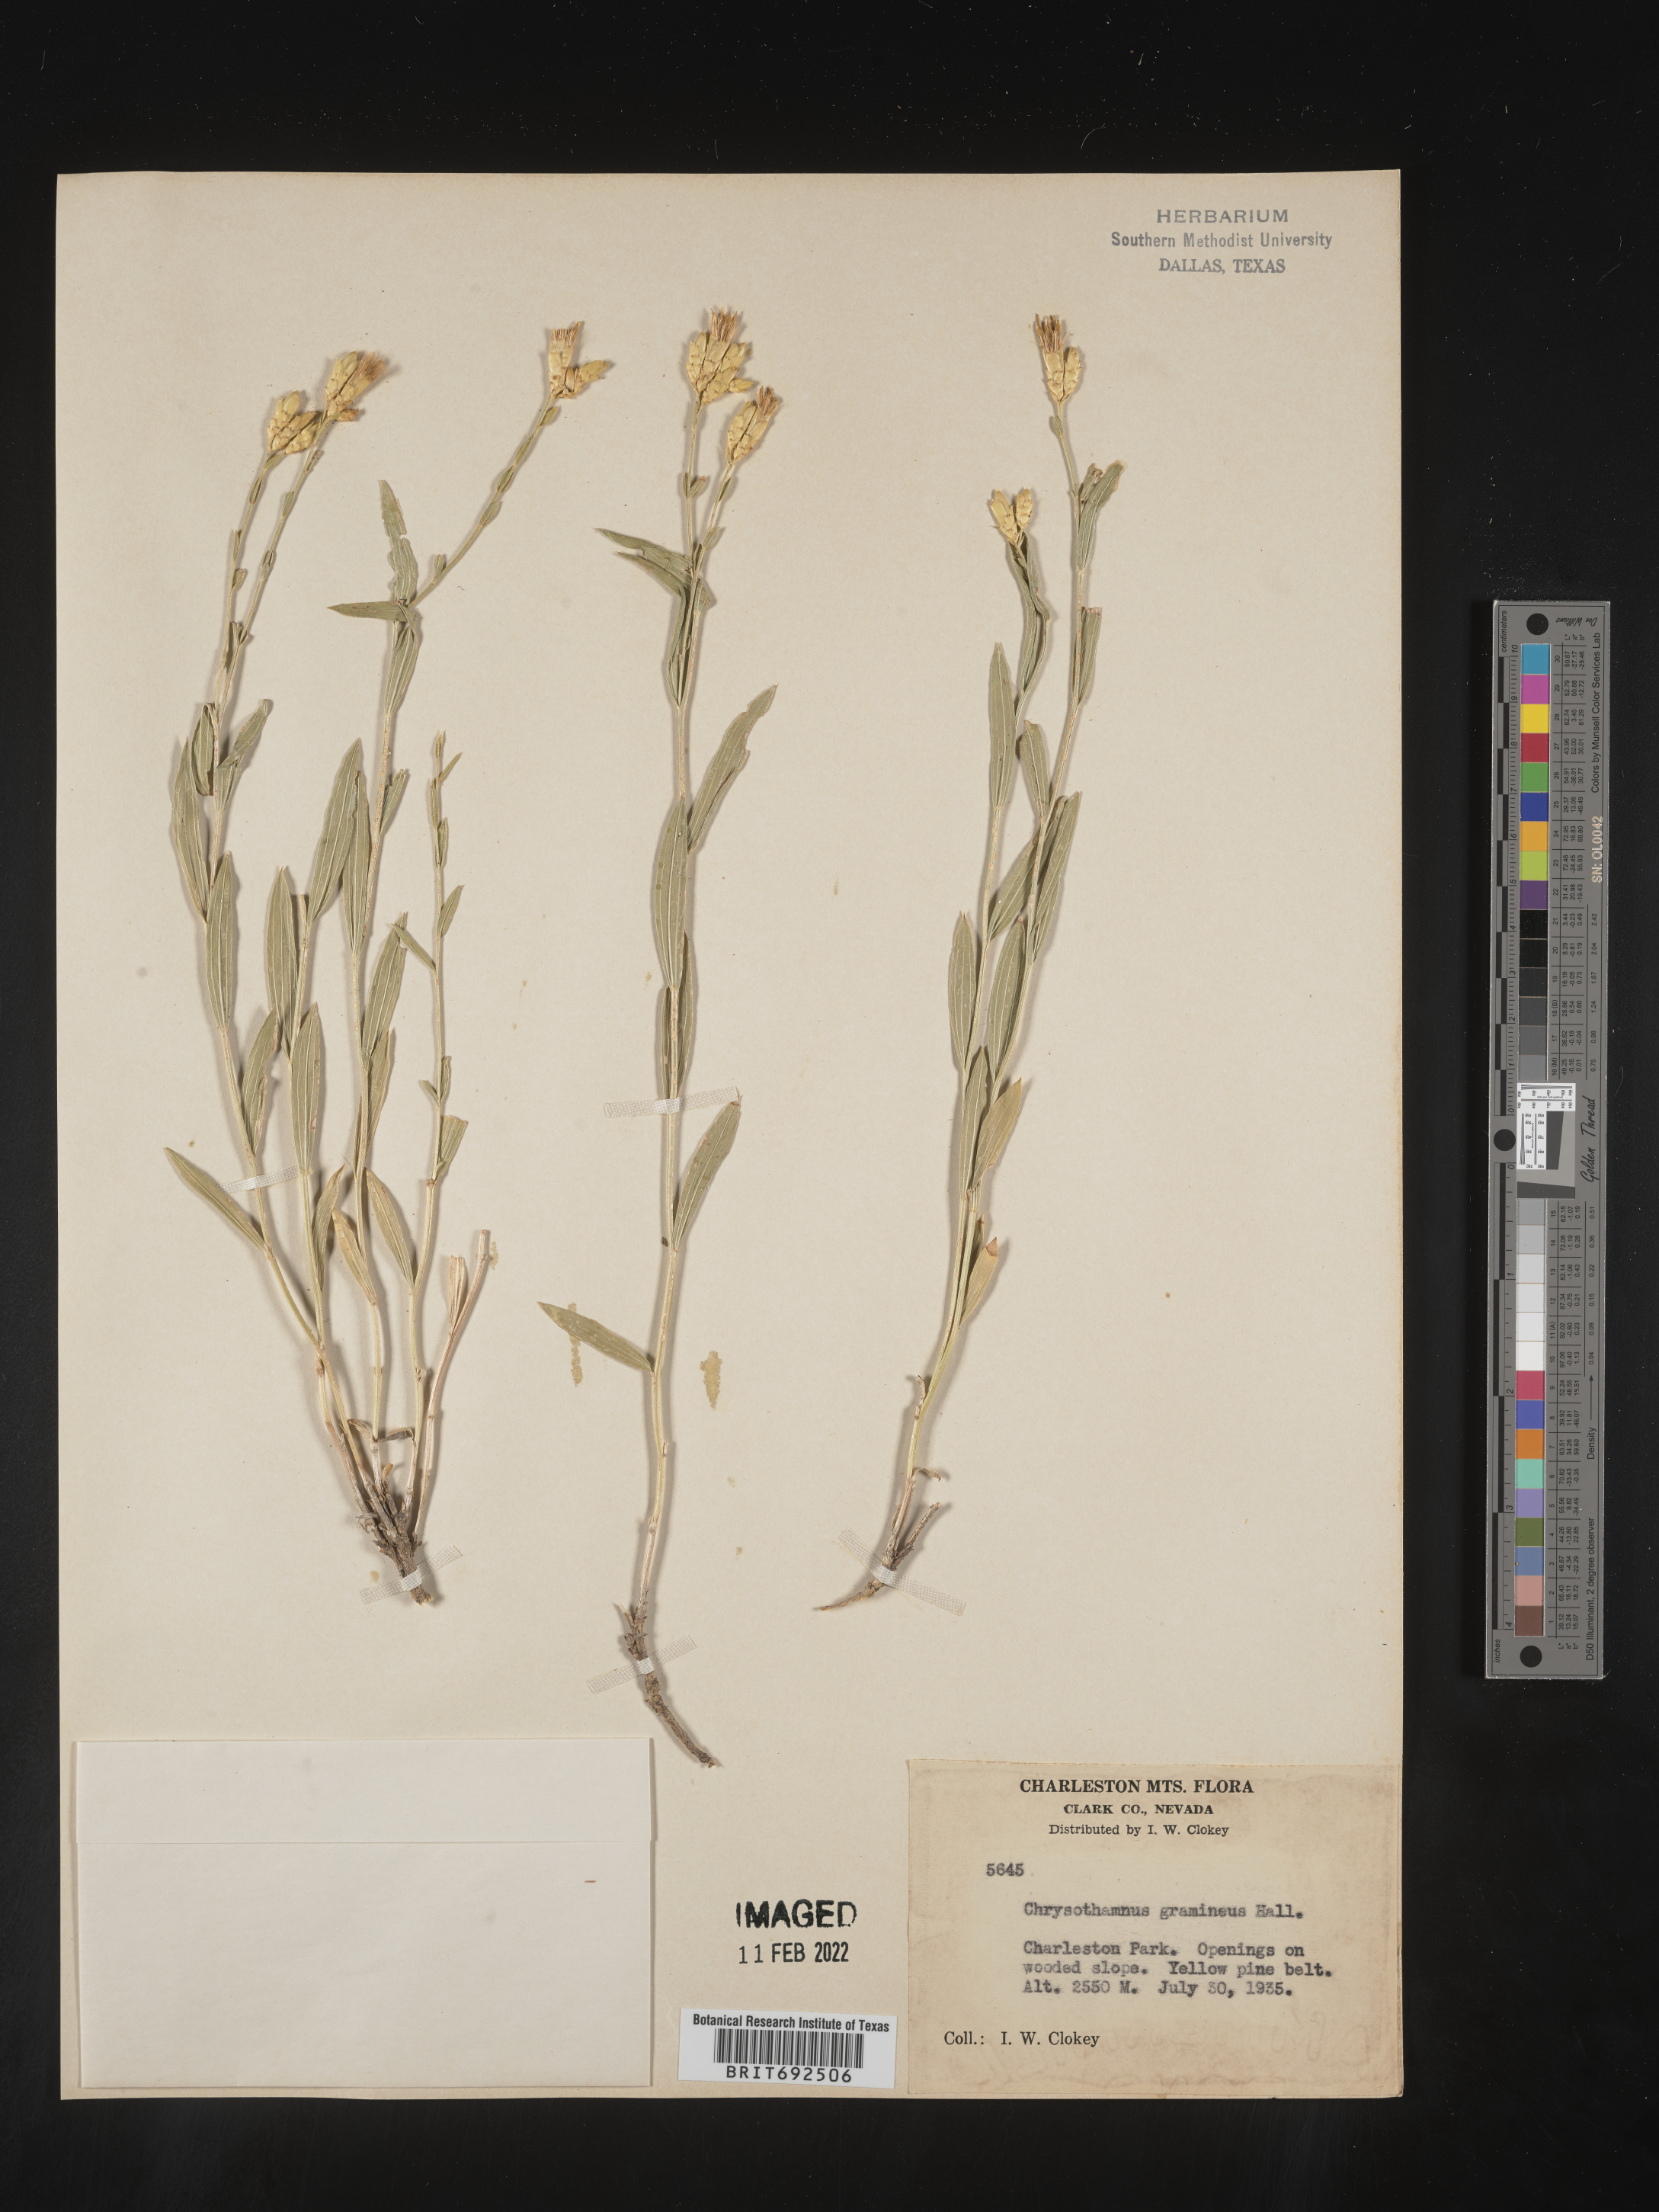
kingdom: Plantae
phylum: Tracheophyta
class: Magnoliopsida
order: Asterales
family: Asteraceae
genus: Cuniculotinus
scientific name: Cuniculotinus
